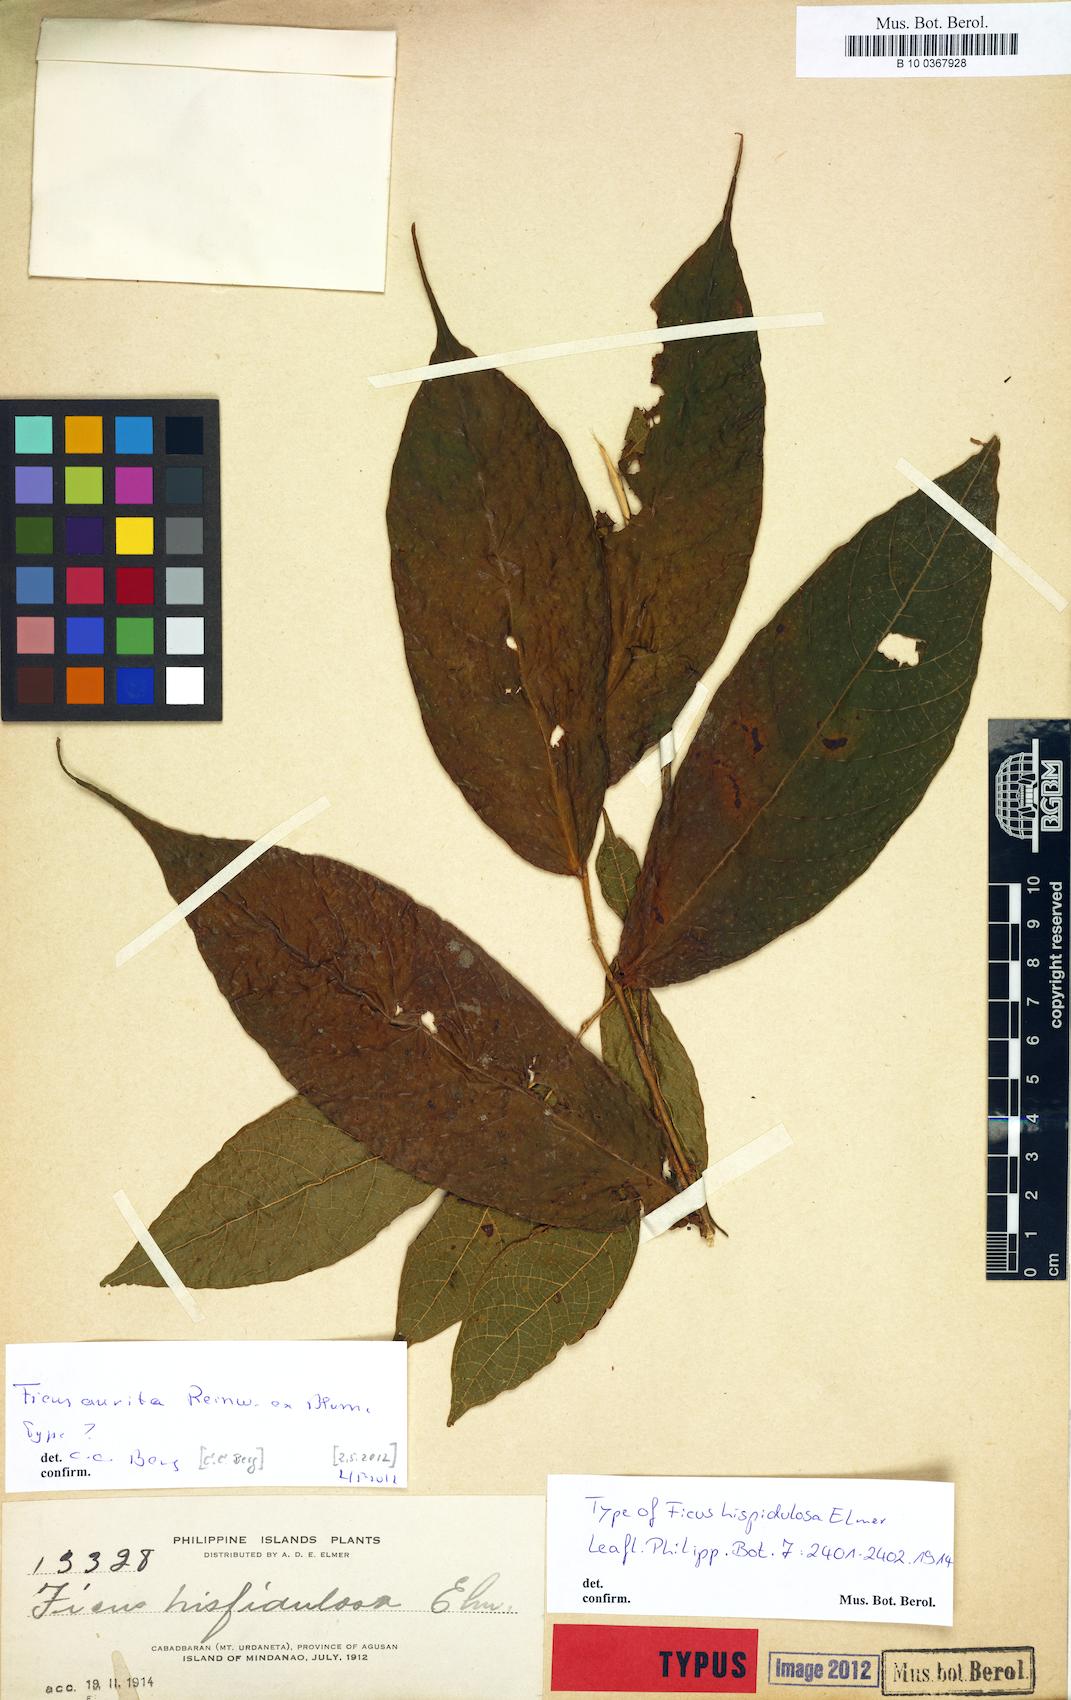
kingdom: Plantae
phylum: Tracheophyta
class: Magnoliopsida
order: Rosales
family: Moraceae
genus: Ficus
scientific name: Ficus aurita
